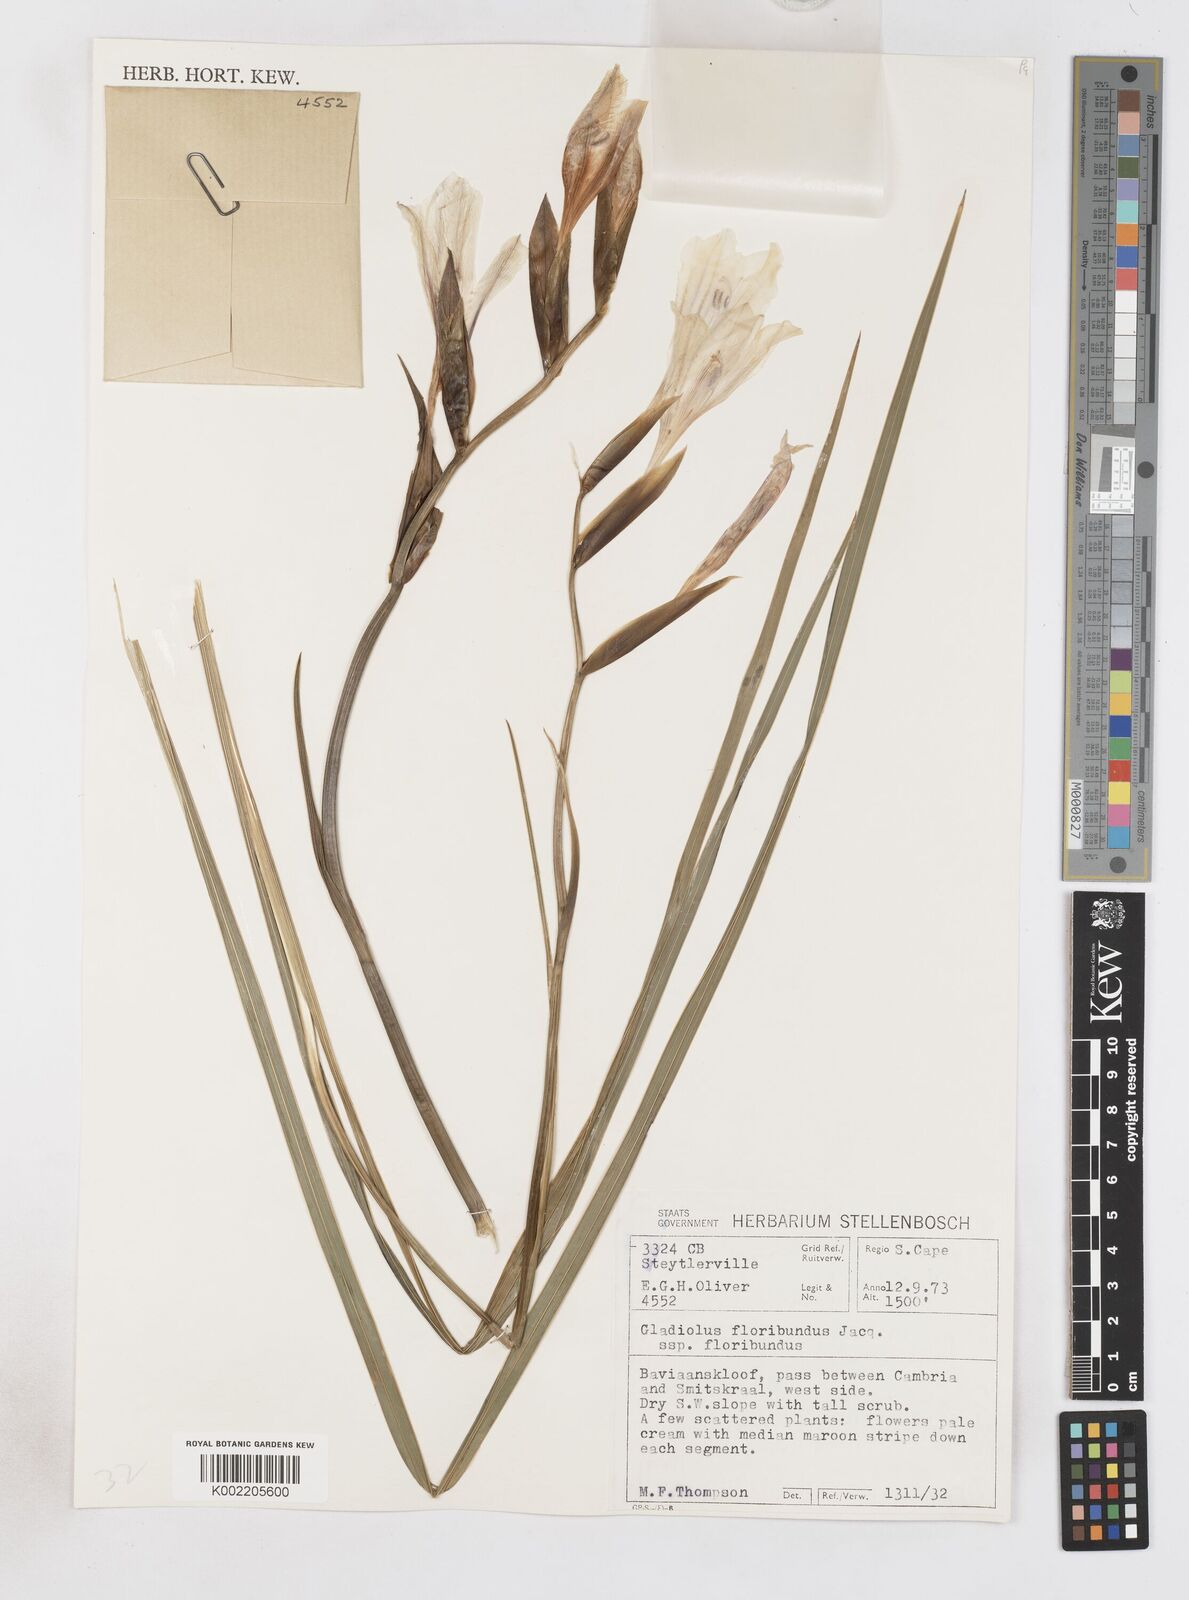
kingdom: Plantae
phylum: Tracheophyta
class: Liliopsida
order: Asparagales
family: Iridaceae
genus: Gladiolus
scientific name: Gladiolus floribundus
